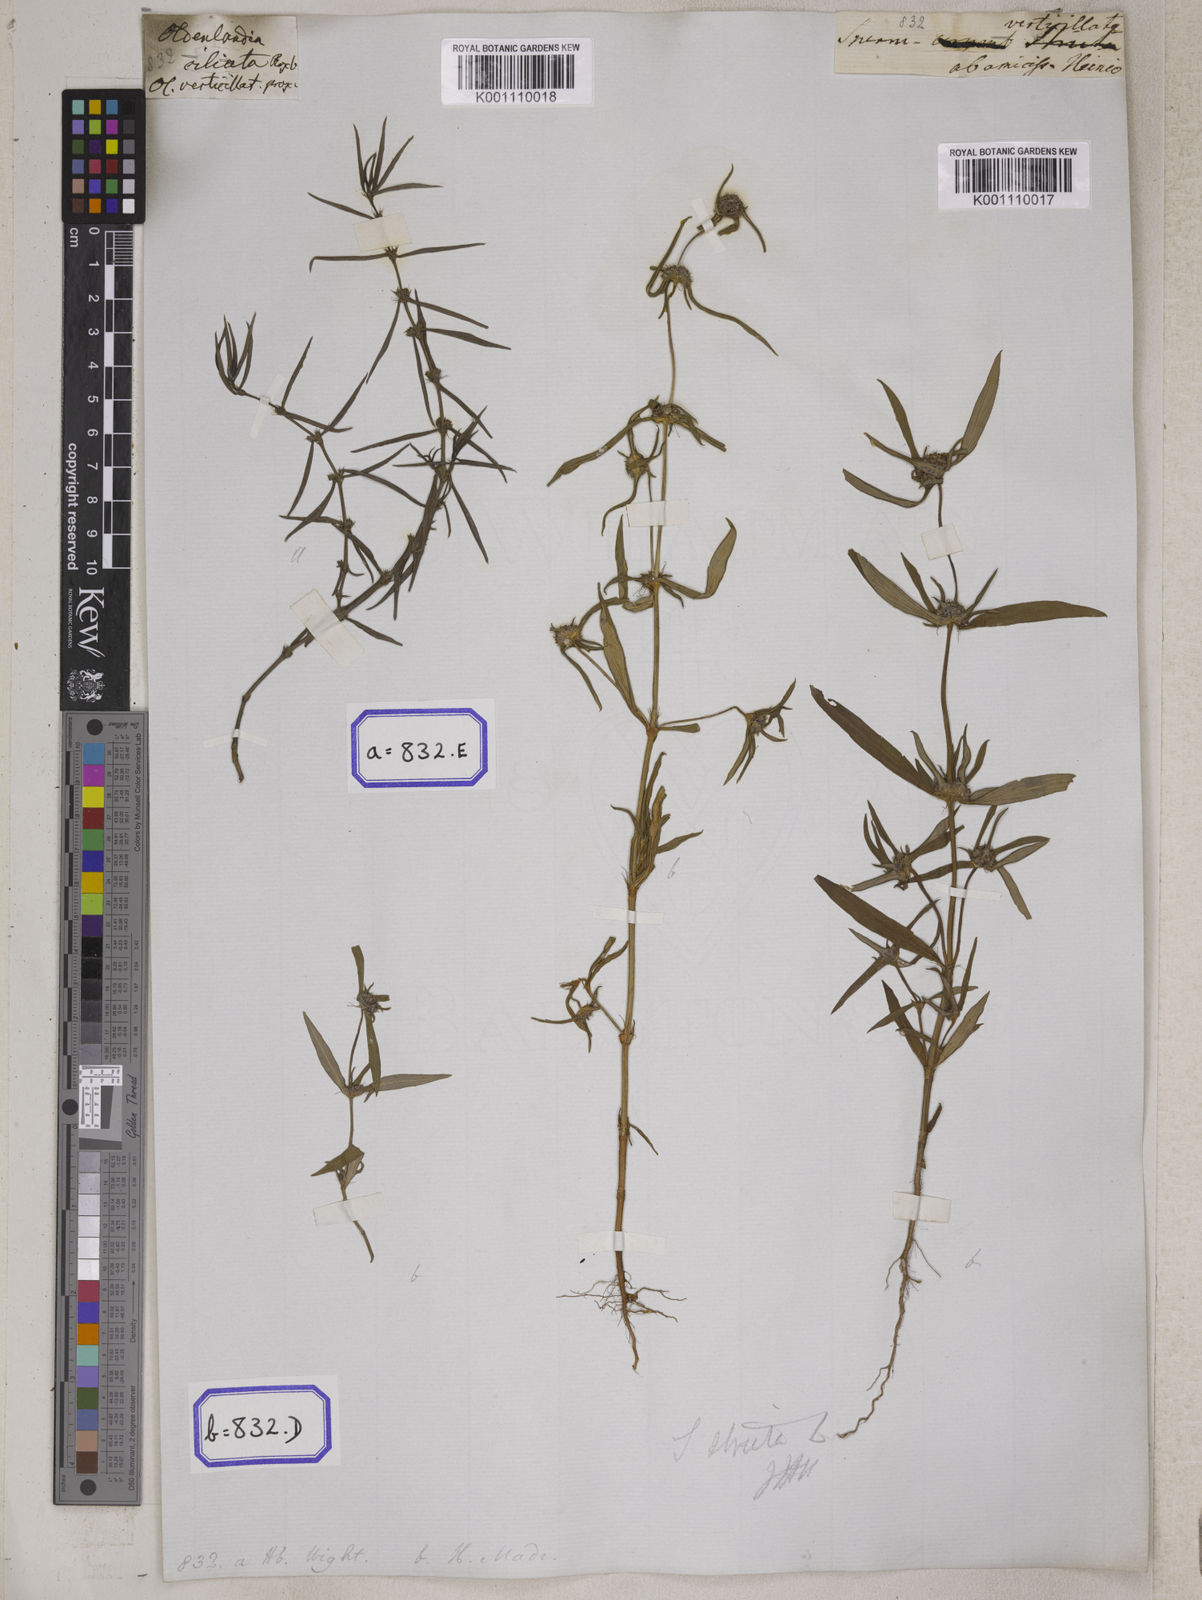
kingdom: Plantae
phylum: Tracheophyta
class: Magnoliopsida
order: Gentianales
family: Rubiaceae
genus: Spermacoce
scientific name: Spermacoce
